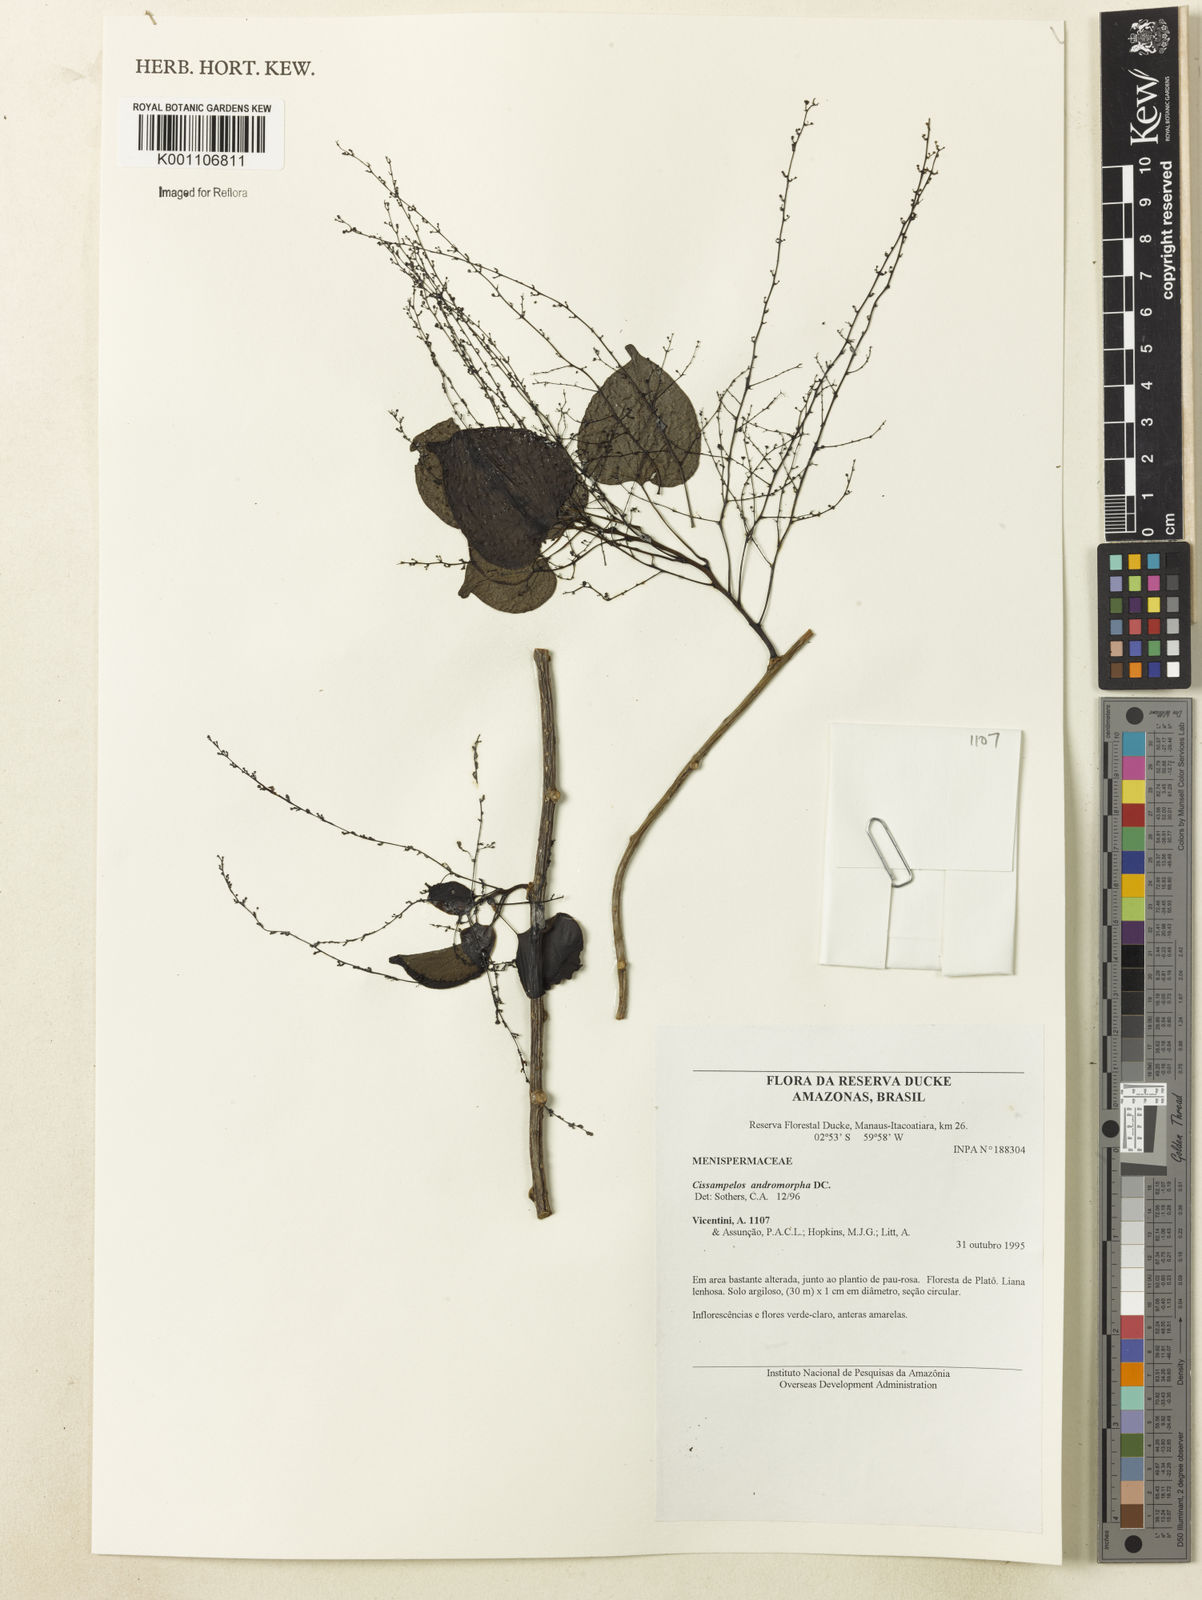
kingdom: Plantae
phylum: Tracheophyta
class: Magnoliopsida
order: Ranunculales
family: Menispermaceae
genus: Cissampelos
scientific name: Cissampelos andromorpha
